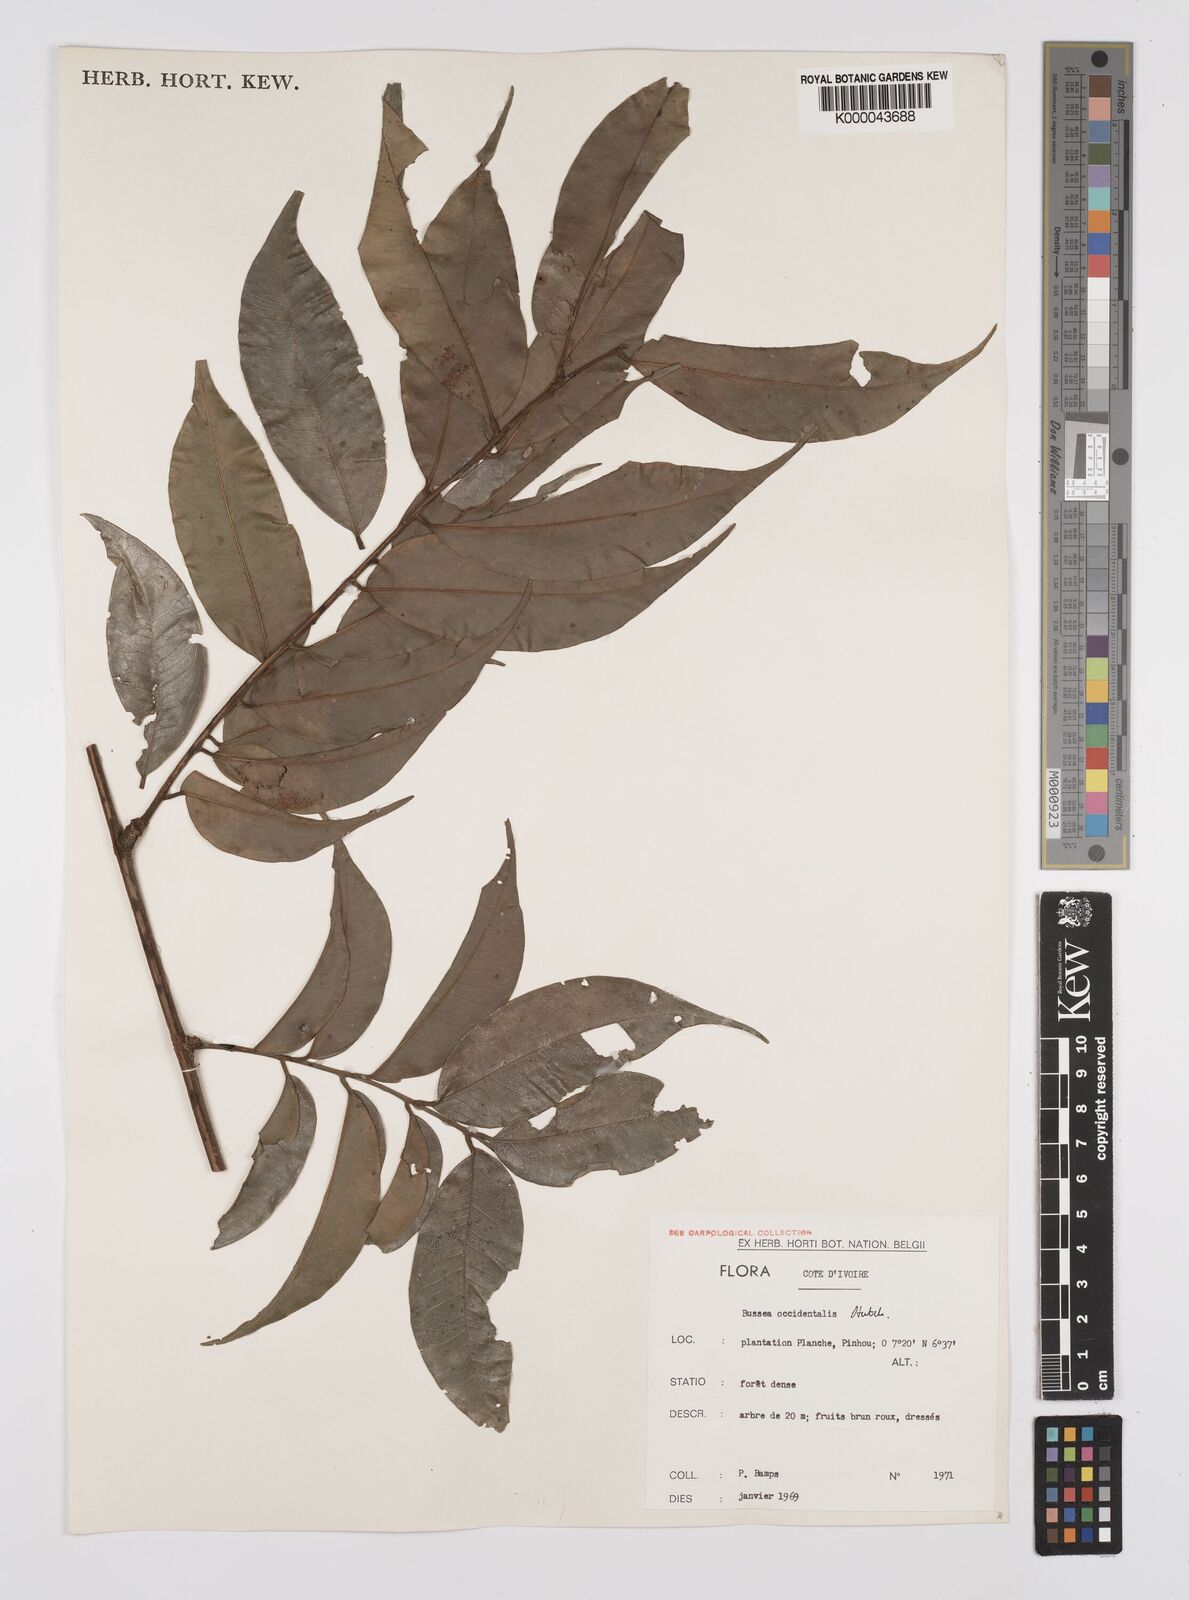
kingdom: Plantae
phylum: Tracheophyta
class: Magnoliopsida
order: Fabales
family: Fabaceae
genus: Bussea
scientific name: Bussea occidentalis
